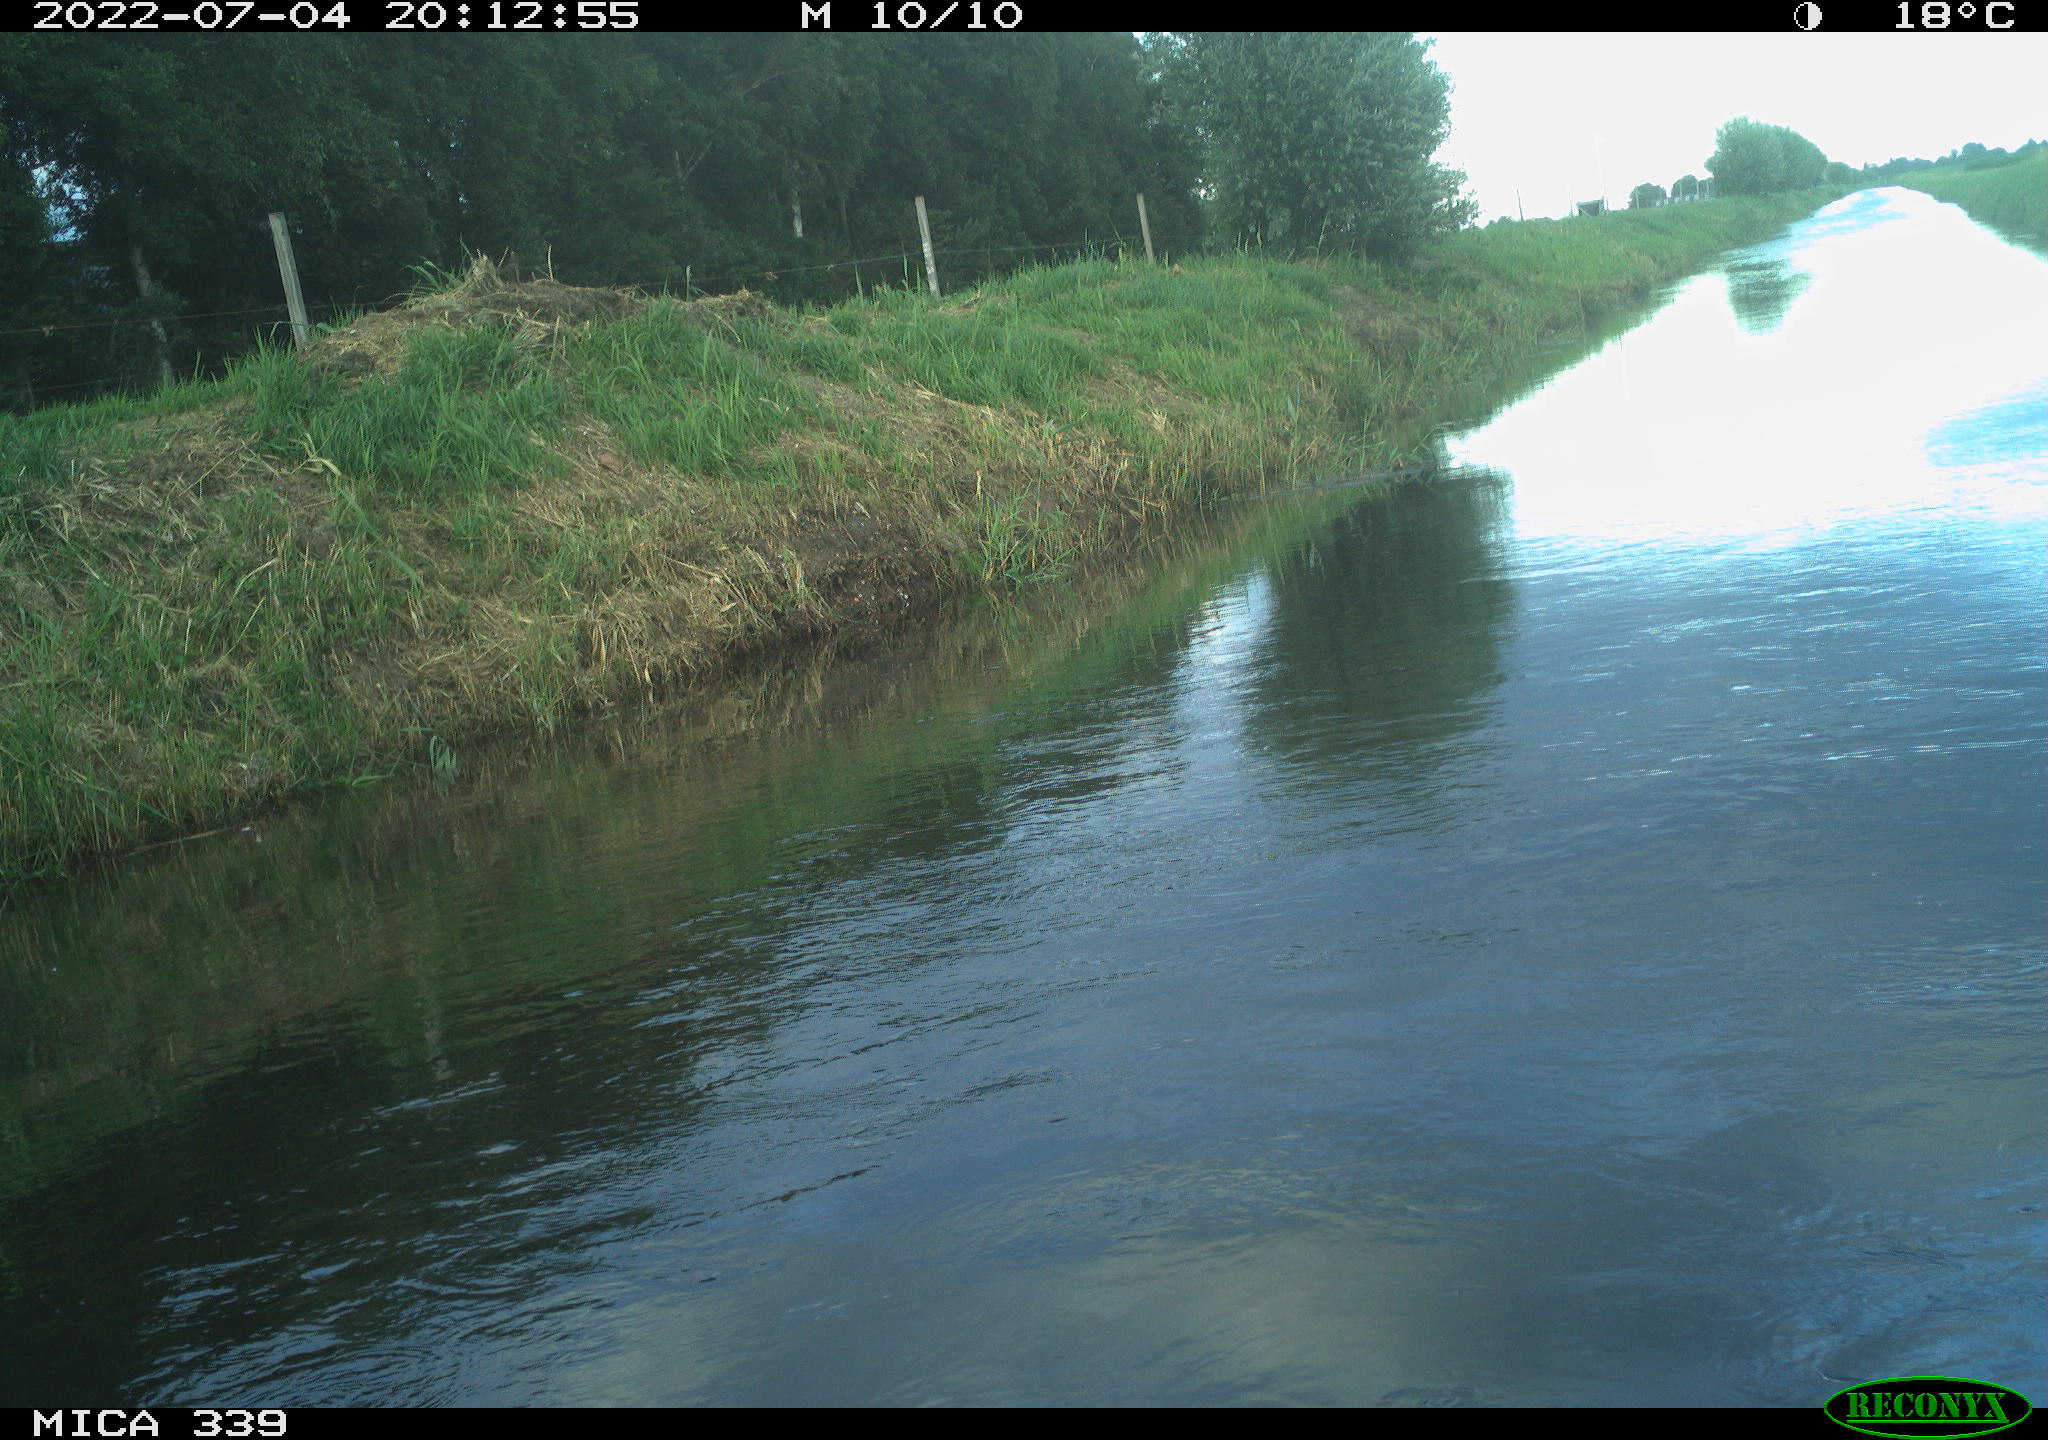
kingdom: Animalia
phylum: Chordata
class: Aves
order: Pelecaniformes
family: Ardeidae
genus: Ardea
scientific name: Ardea cinerea
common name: Grey heron
